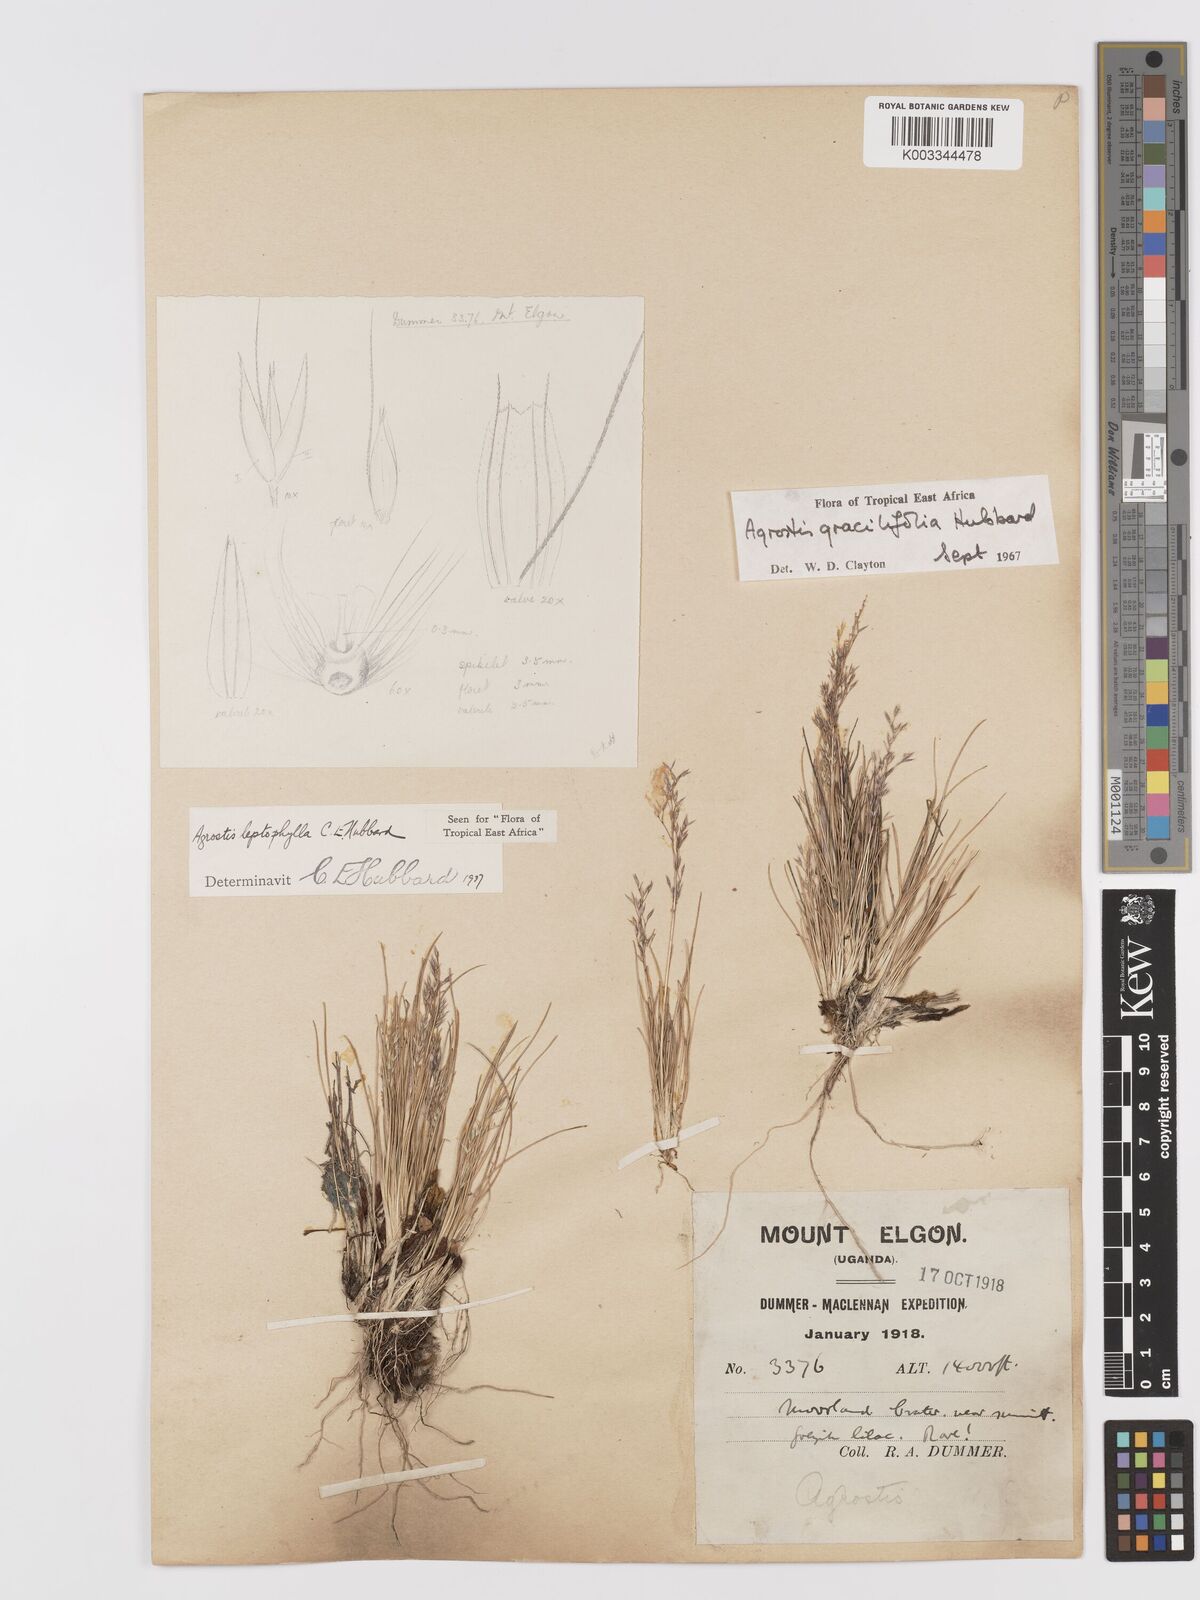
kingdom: Plantae
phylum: Tracheophyta
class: Liliopsida
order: Poales
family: Poaceae
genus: Agrostis
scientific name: Agrostis gracilifolia
